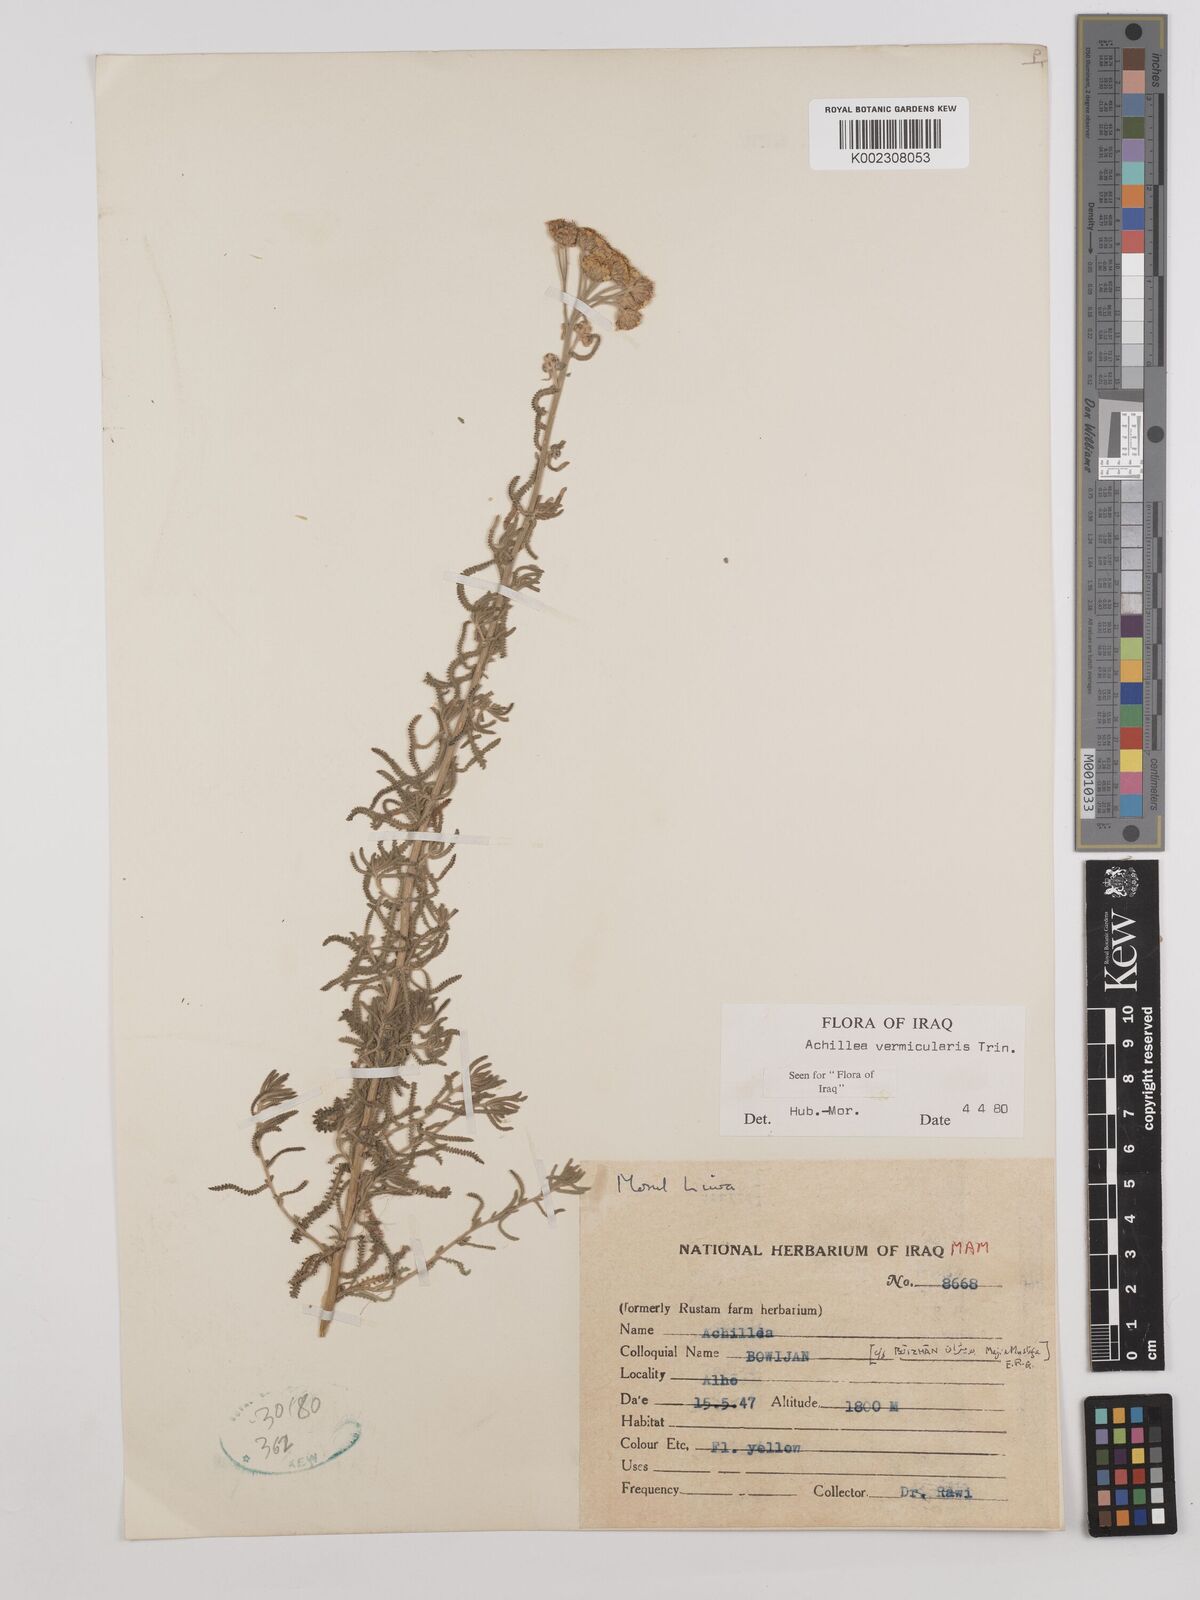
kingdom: Plantae
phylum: Tracheophyta
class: Magnoliopsida
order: Asterales
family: Asteraceae
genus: Achillea
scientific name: Achillea vermicularis
